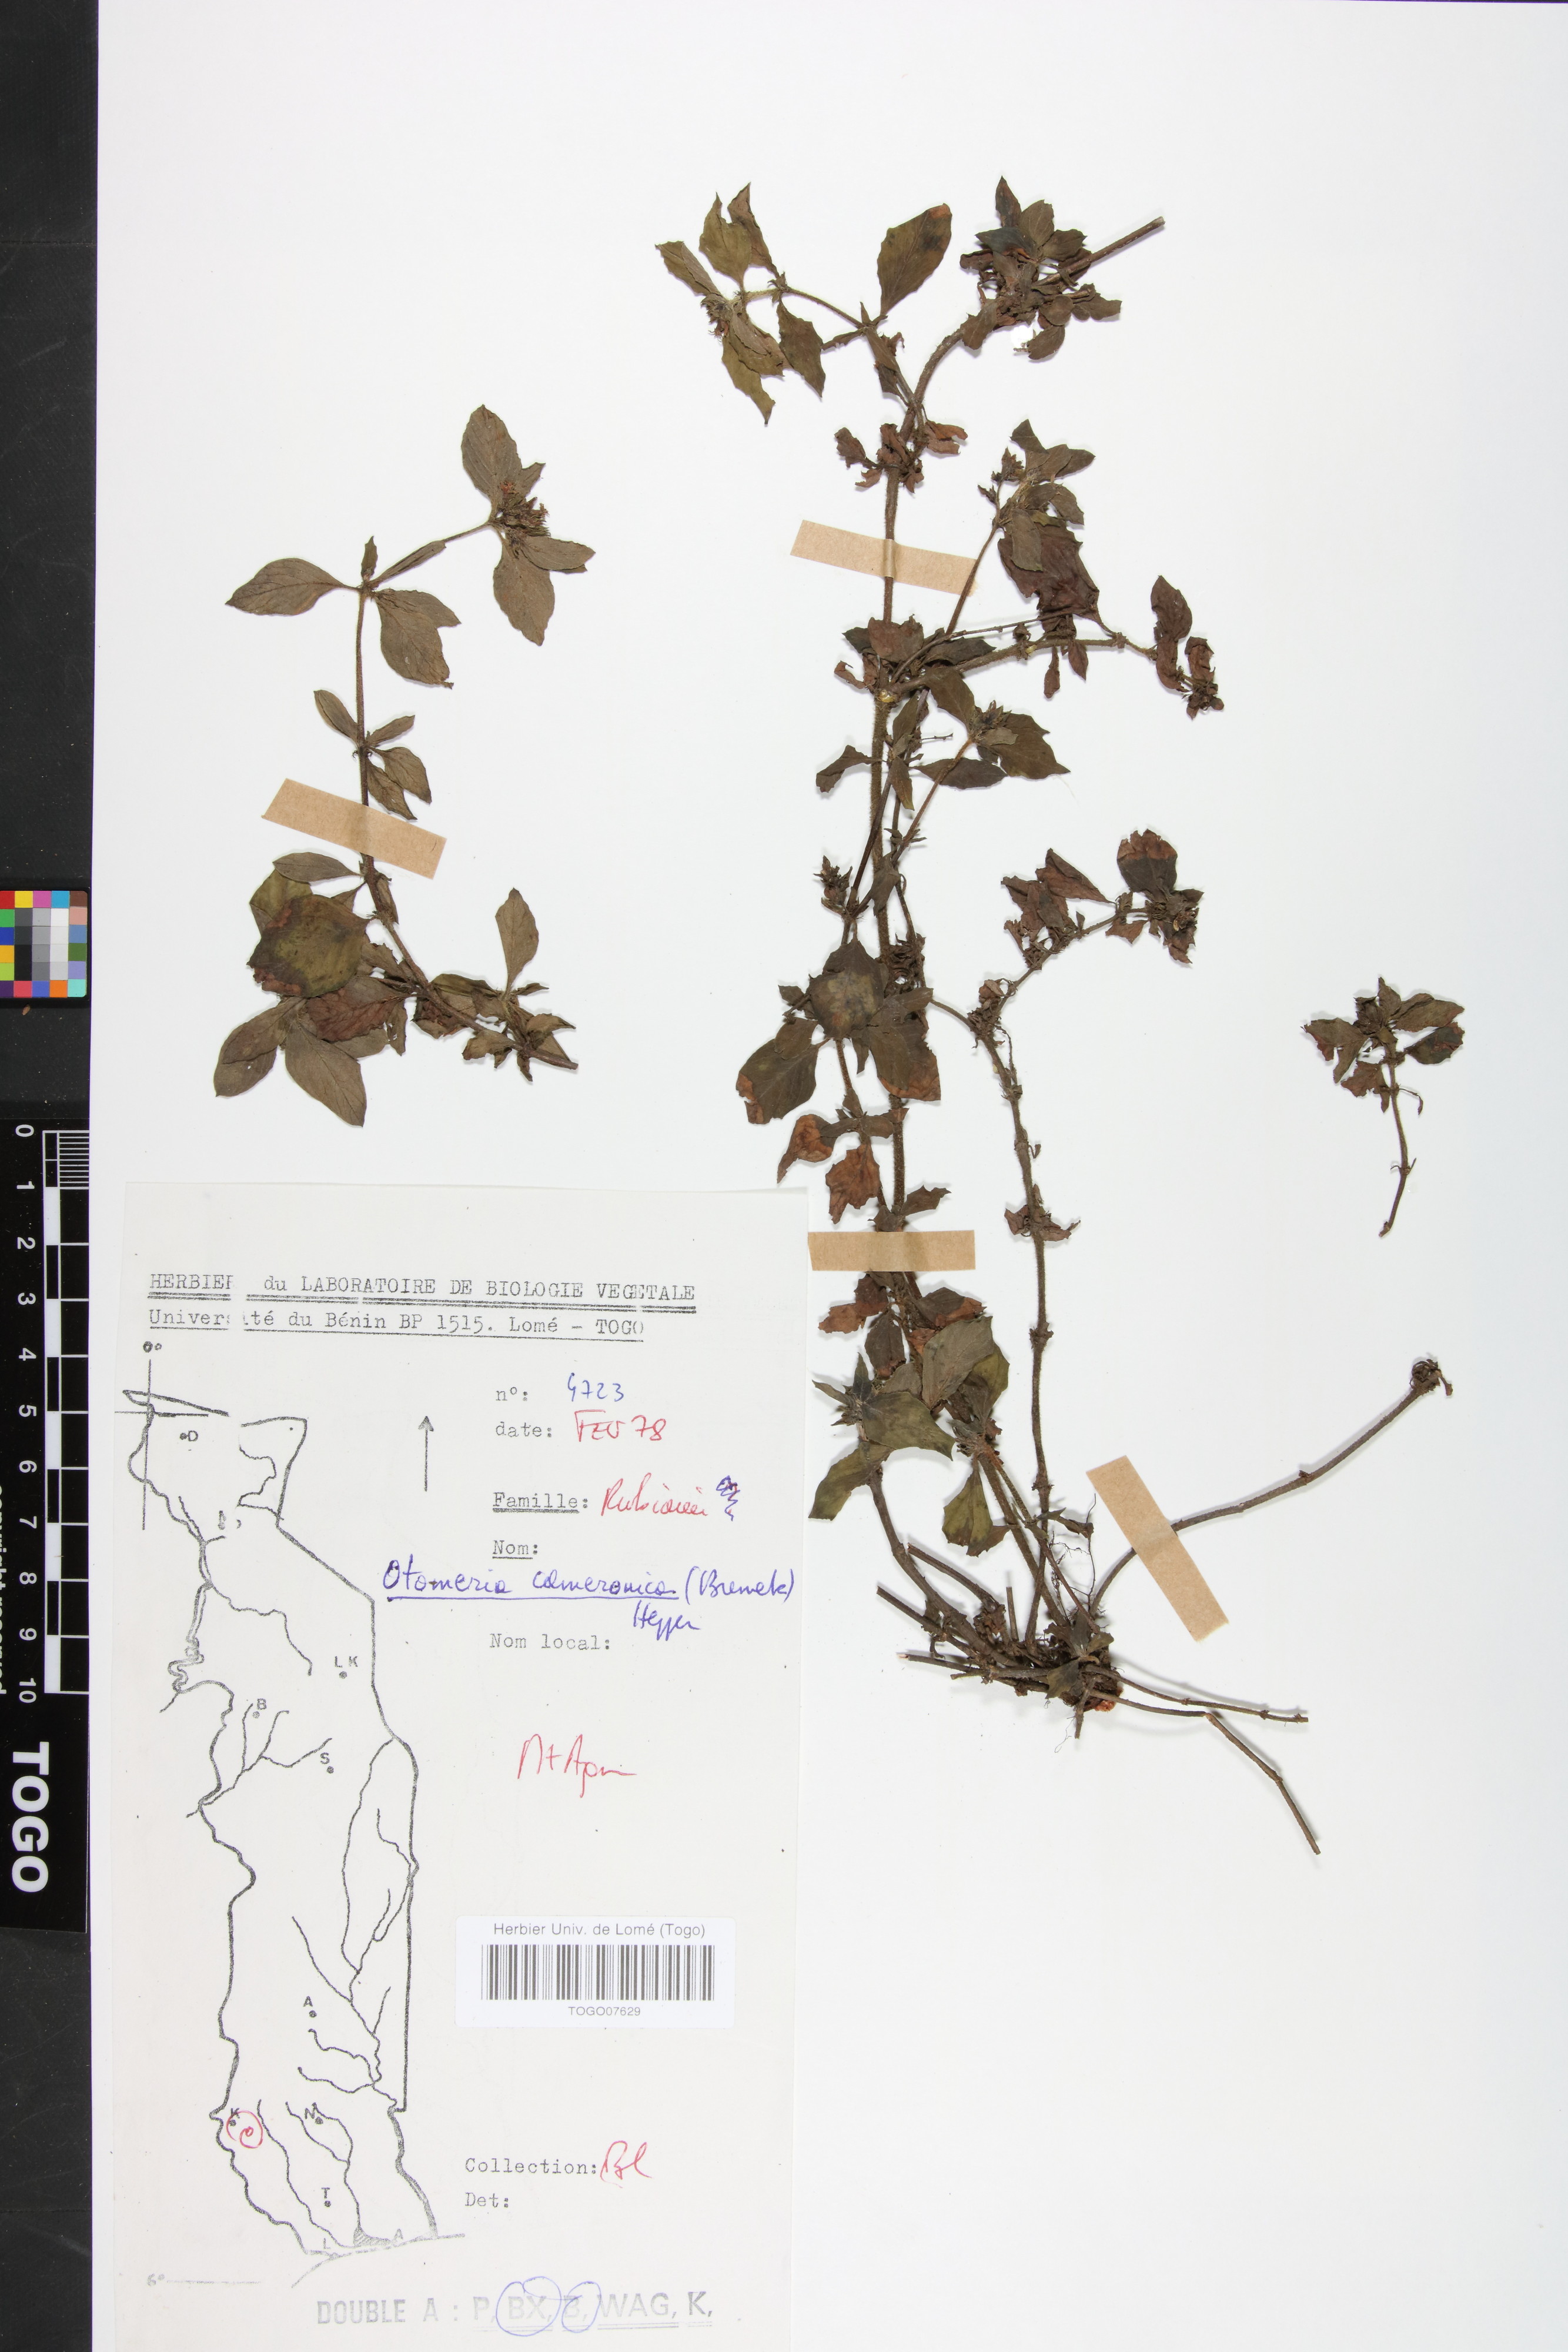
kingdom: Plantae
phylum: Tracheophyta
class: Magnoliopsida
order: Gentianales
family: Rubiaceae
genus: Otomeria
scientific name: Otomeria cameronica
